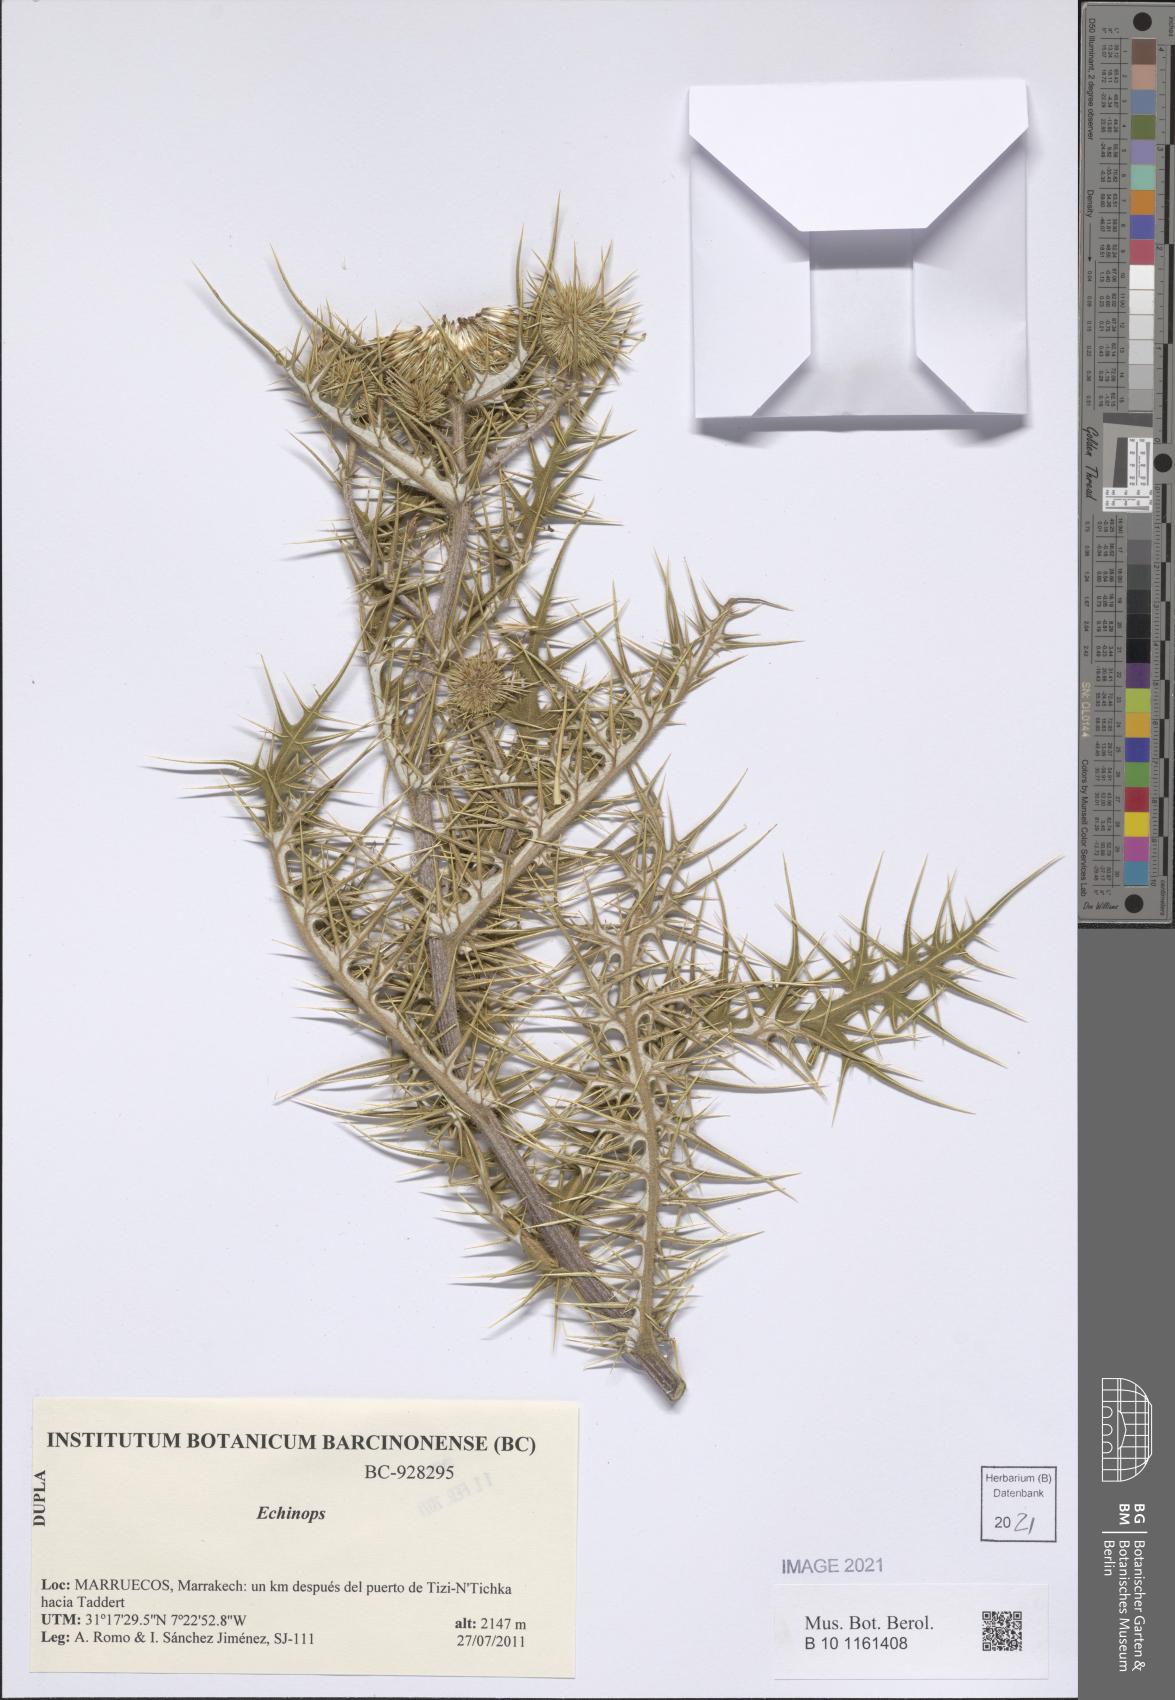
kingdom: Plantae
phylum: Tracheophyta
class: Magnoliopsida
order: Asterales
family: Asteraceae
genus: Echinops
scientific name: Echinops
